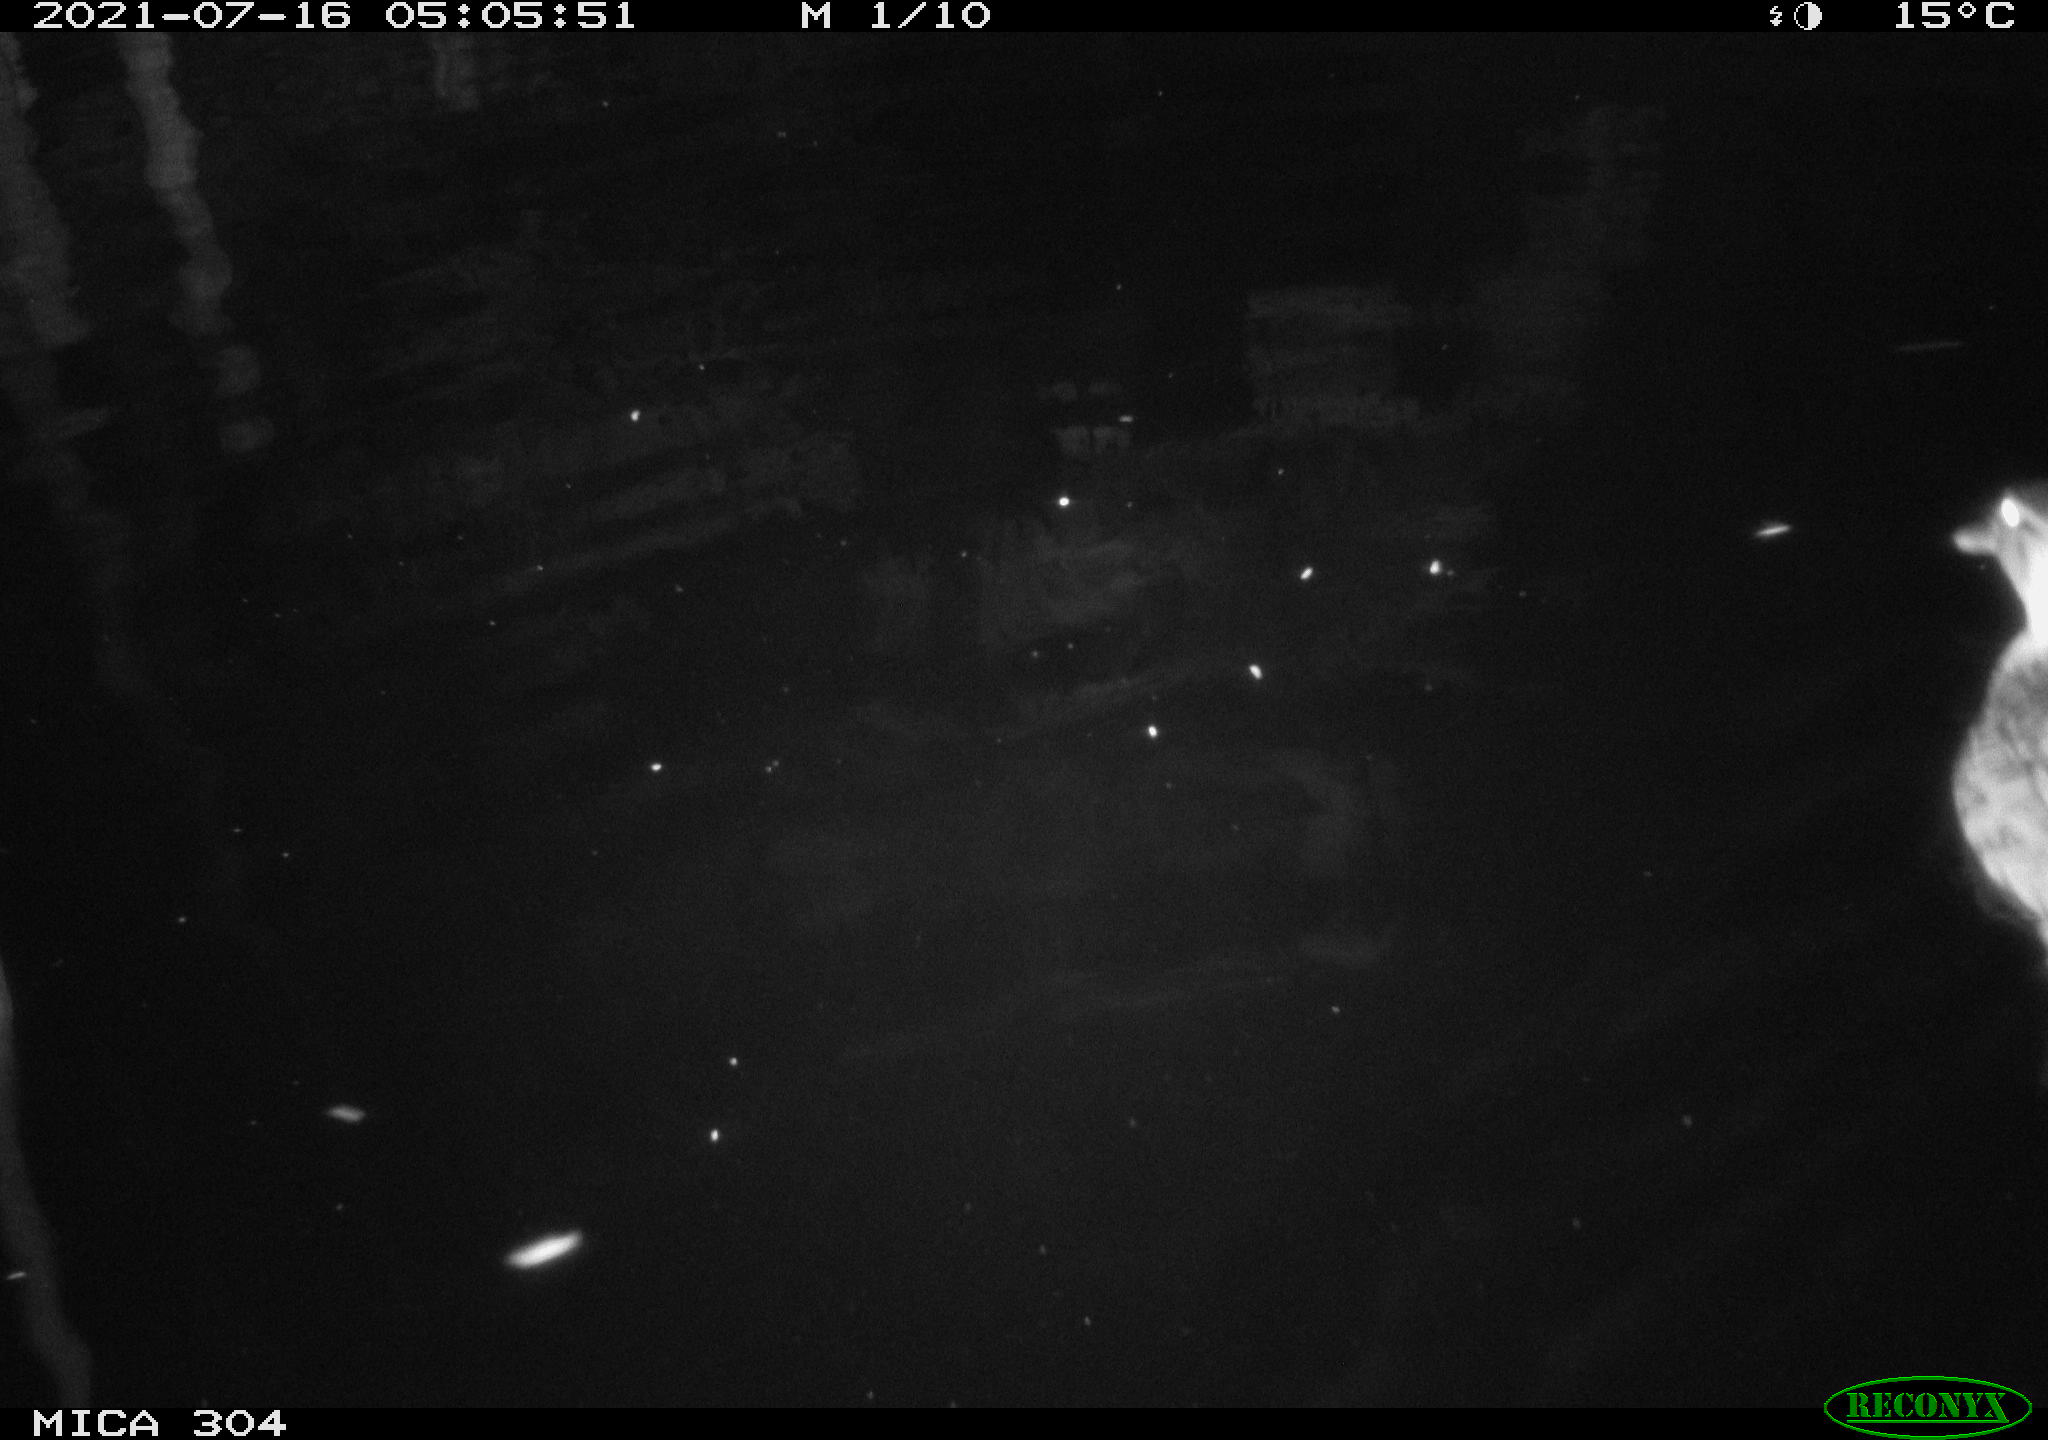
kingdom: Animalia
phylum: Chordata
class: Aves
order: Anseriformes
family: Anatidae
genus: Anas
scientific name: Anas platyrhynchos
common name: Mallard
